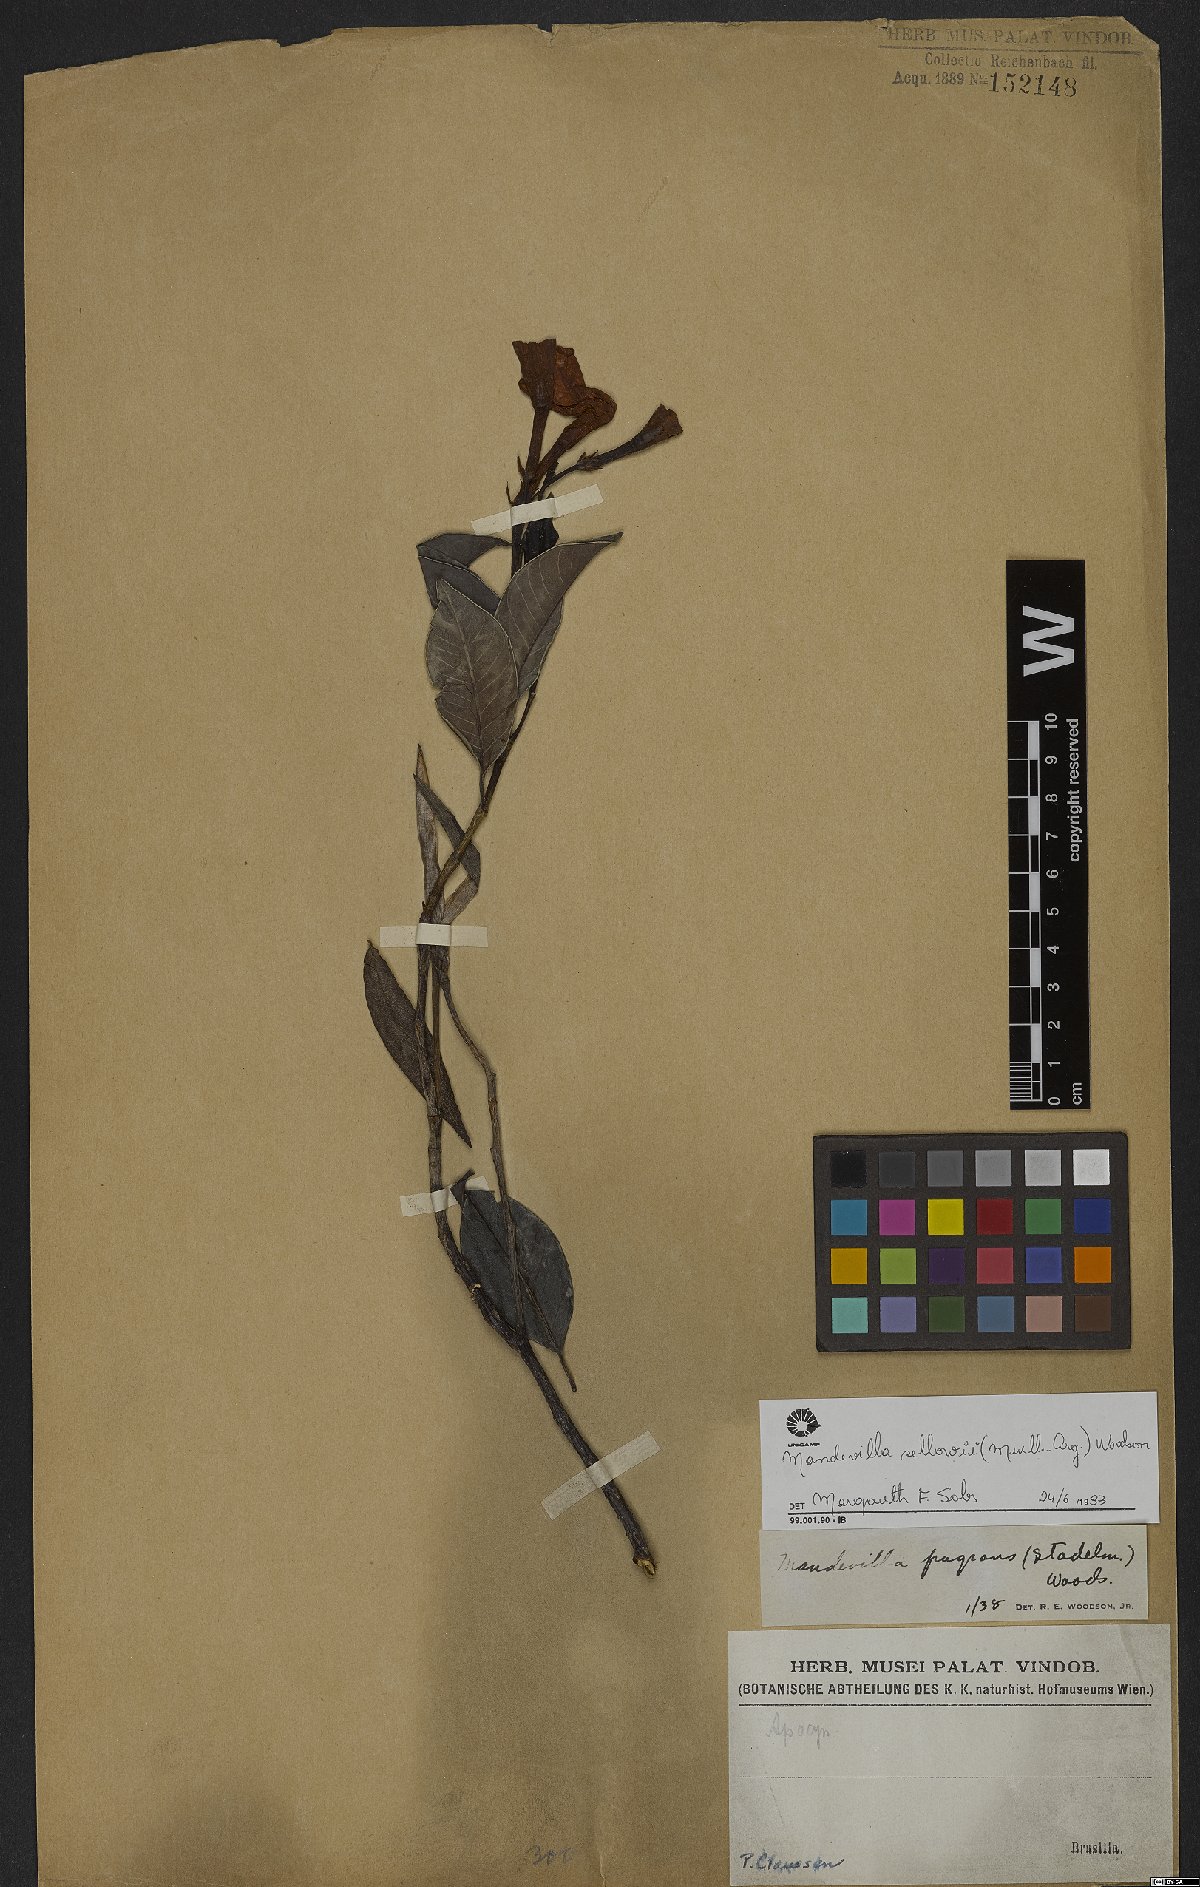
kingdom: Plantae
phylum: Tracheophyta
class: Magnoliopsida
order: Gentianales
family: Apocynaceae
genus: Mandevilla
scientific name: Mandevilla sellowii
